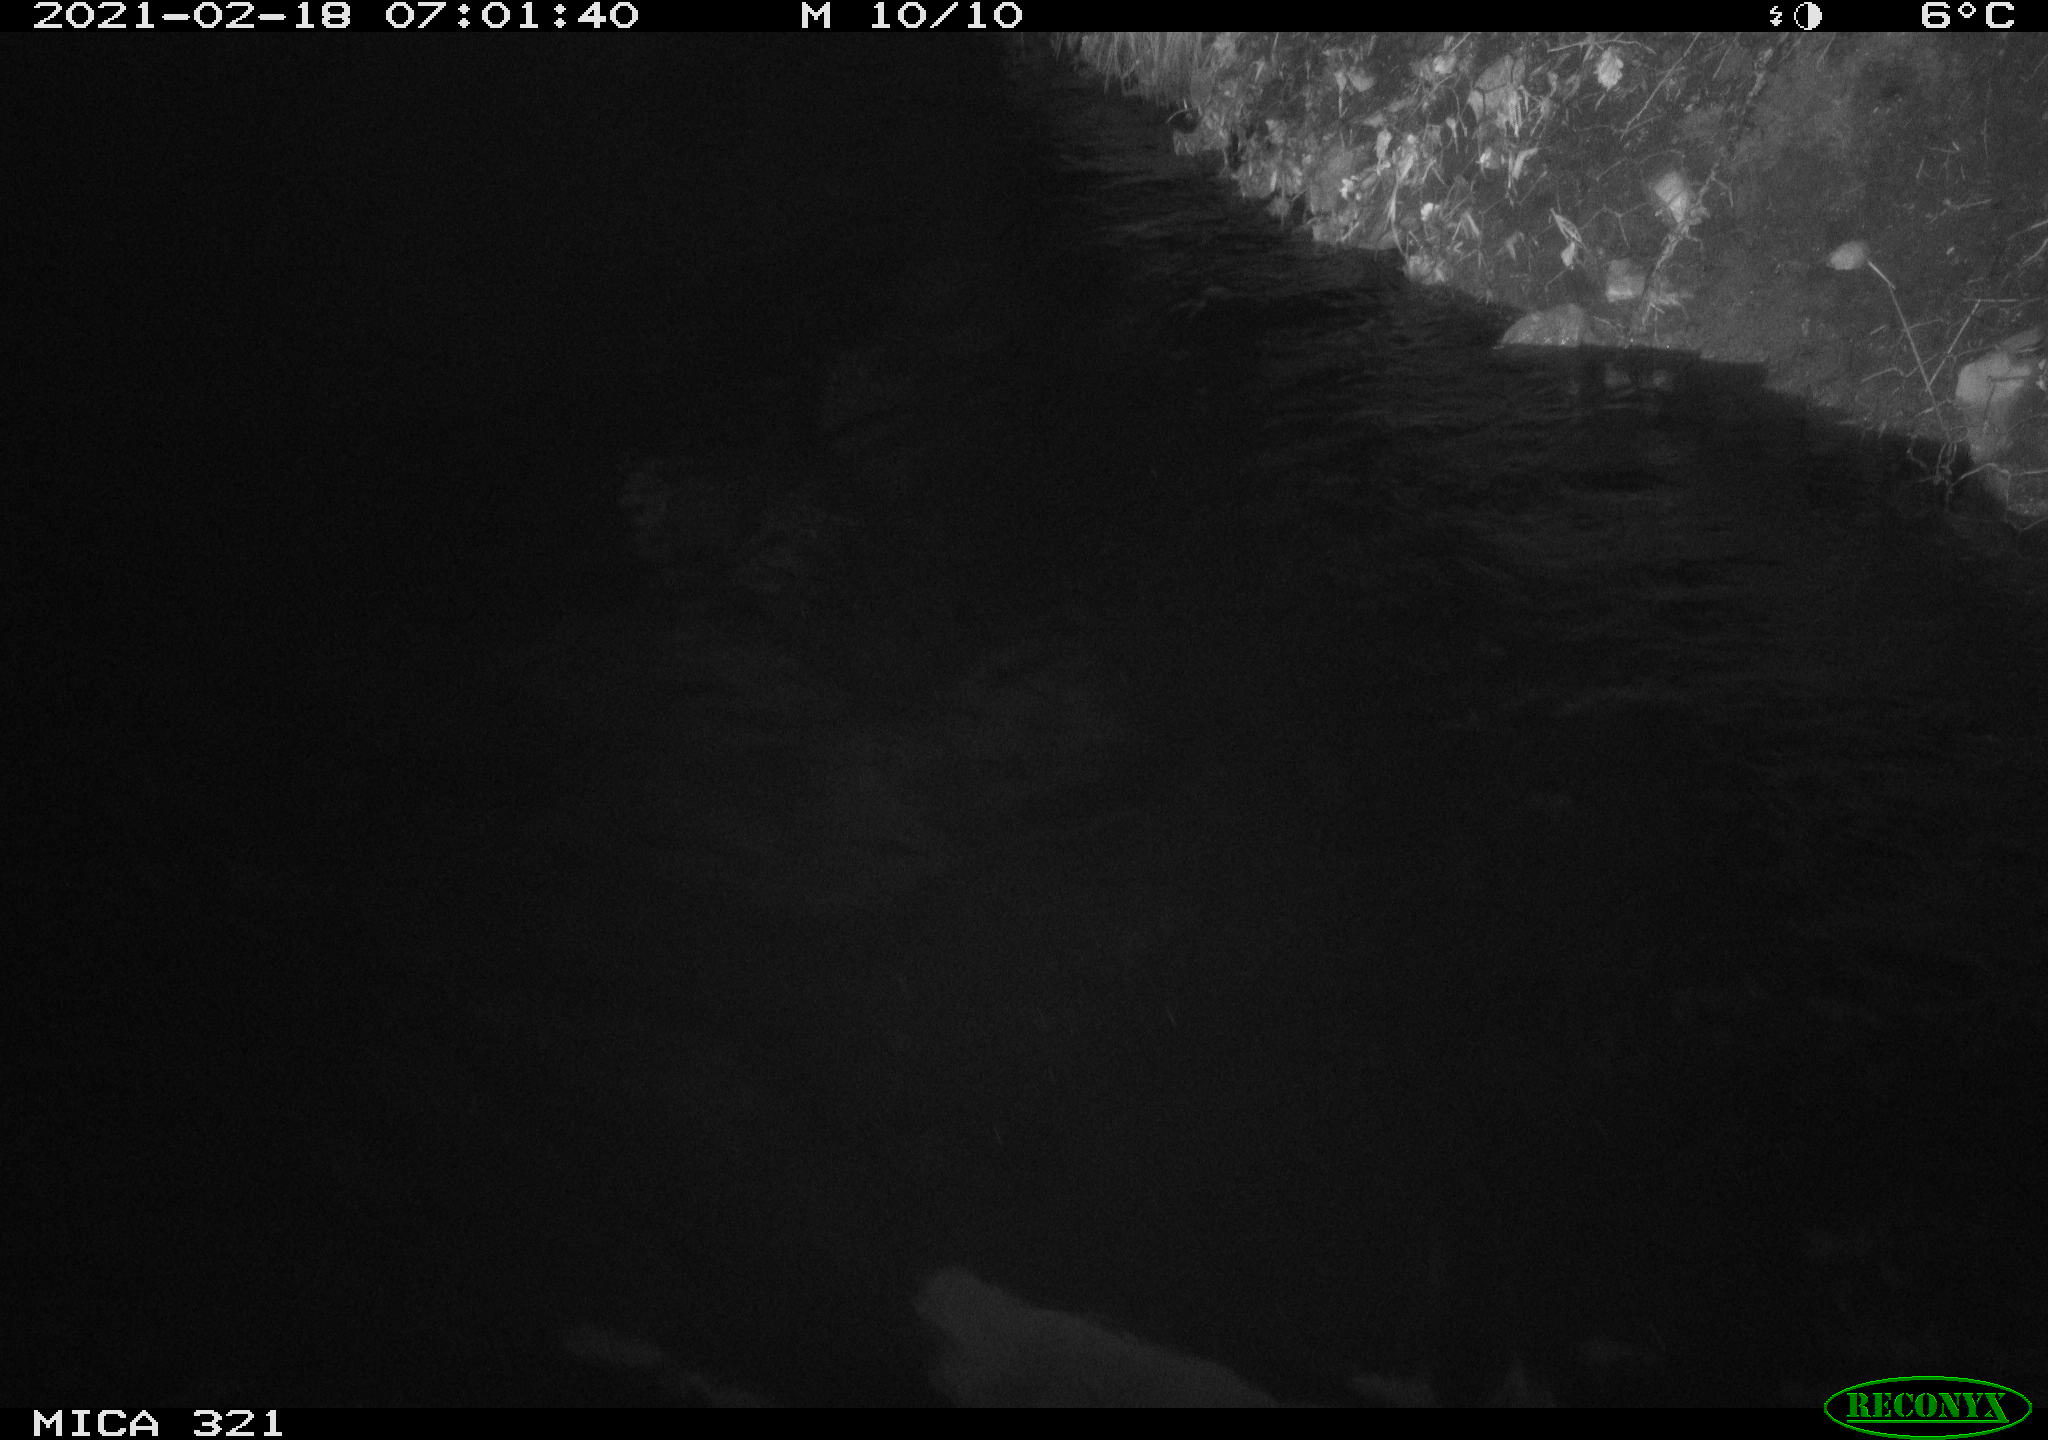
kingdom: Animalia
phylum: Chordata
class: Aves
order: Anseriformes
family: Anatidae
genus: Anas
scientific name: Anas platyrhynchos
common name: Mallard
